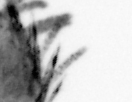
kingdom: Animalia
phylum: Annelida
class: Polychaeta
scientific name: Polychaeta
